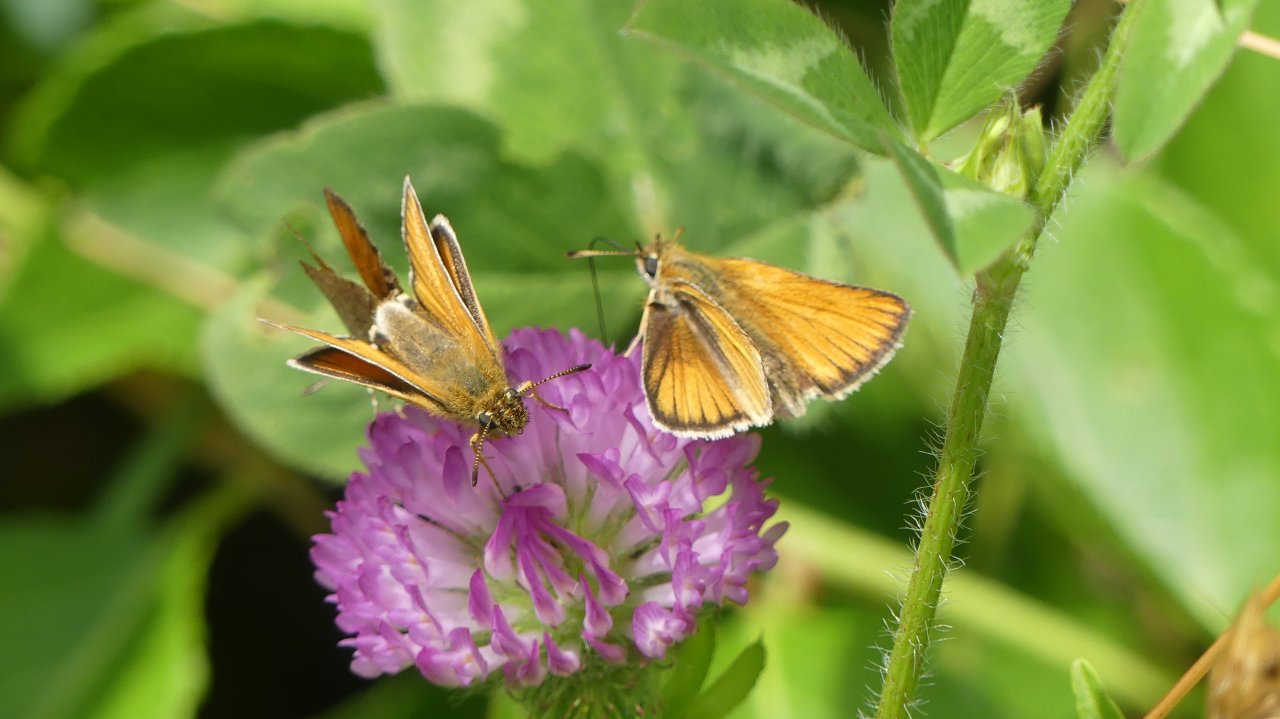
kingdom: Animalia
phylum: Arthropoda
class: Insecta
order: Lepidoptera
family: Hesperiidae
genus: Thymelicus
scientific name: Thymelicus lineola
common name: European Skipper
